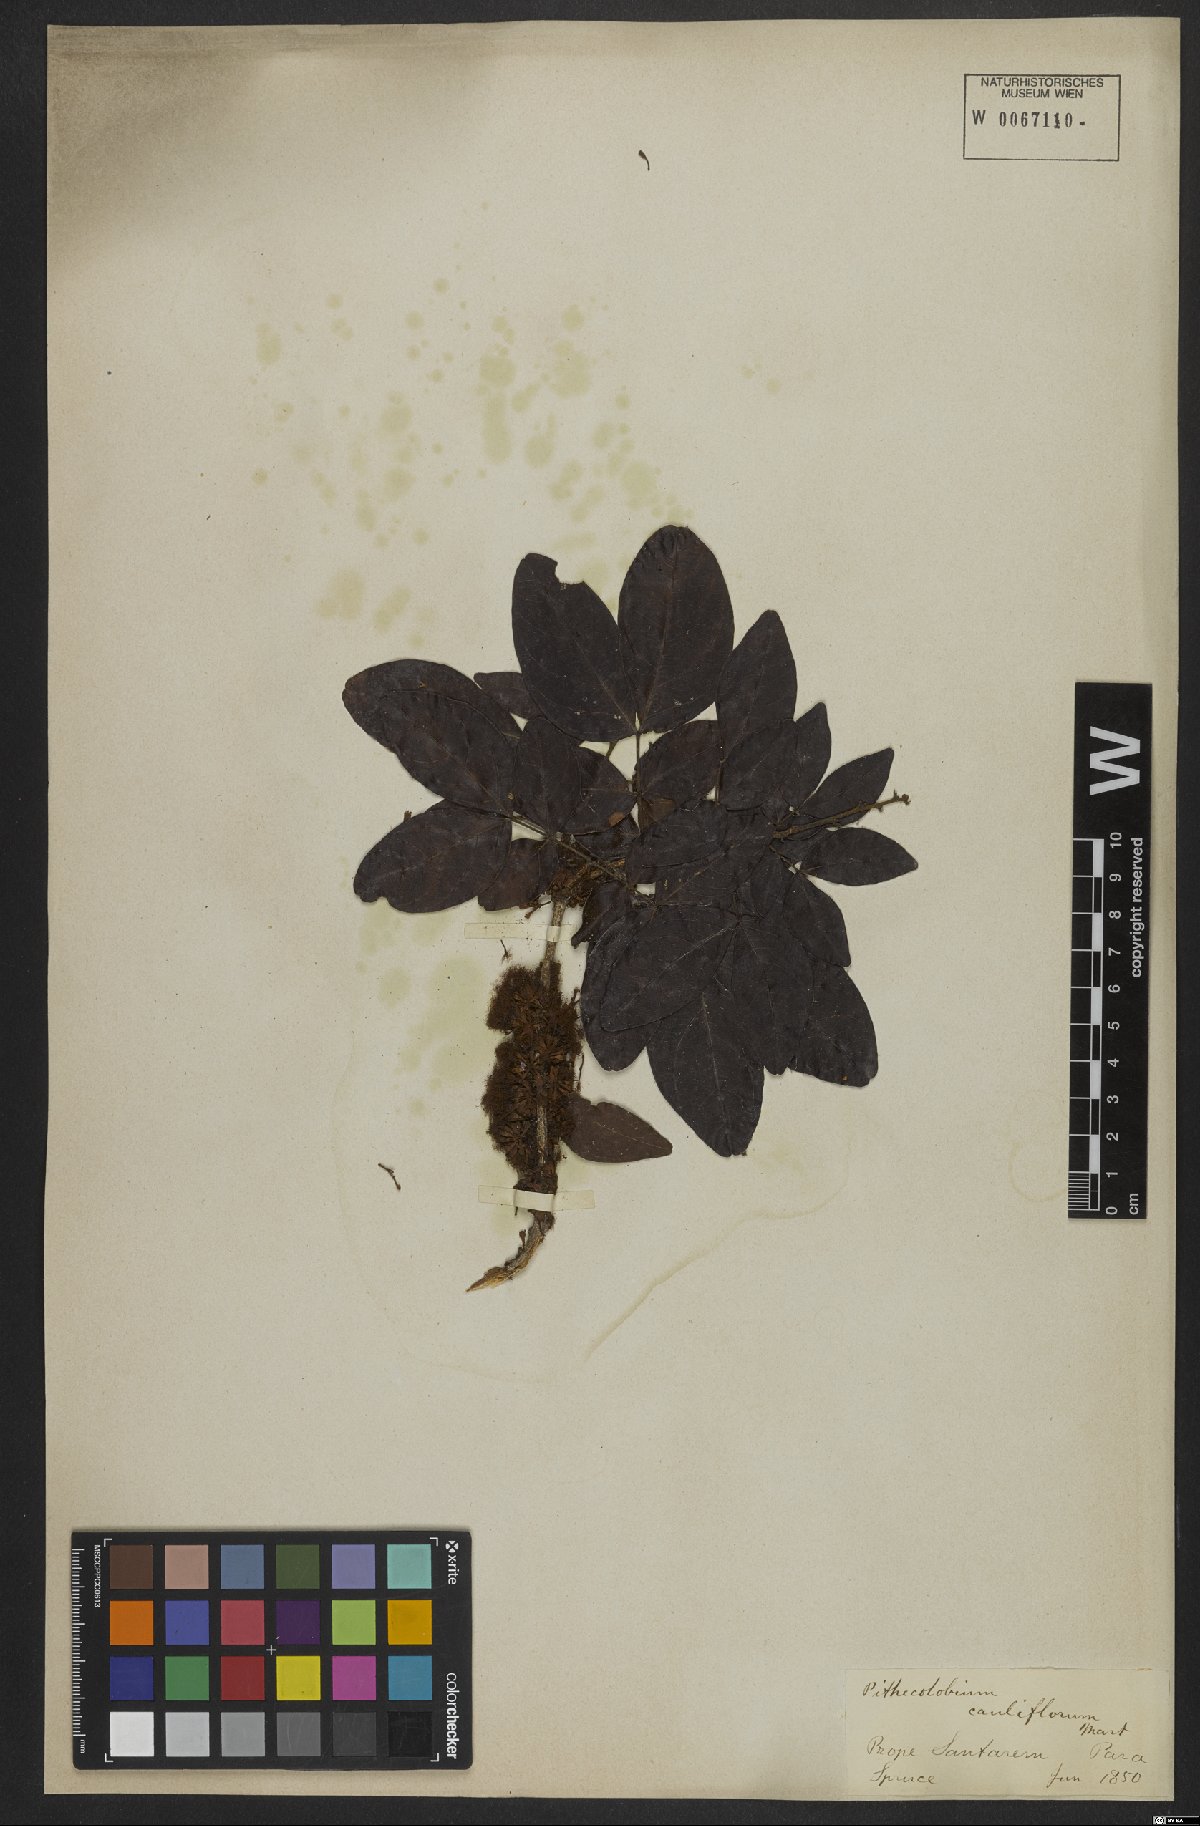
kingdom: Plantae
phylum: Tracheophyta
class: Magnoliopsida
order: Fabales
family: Fabaceae
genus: Zygia
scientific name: Zygia cauliflora
